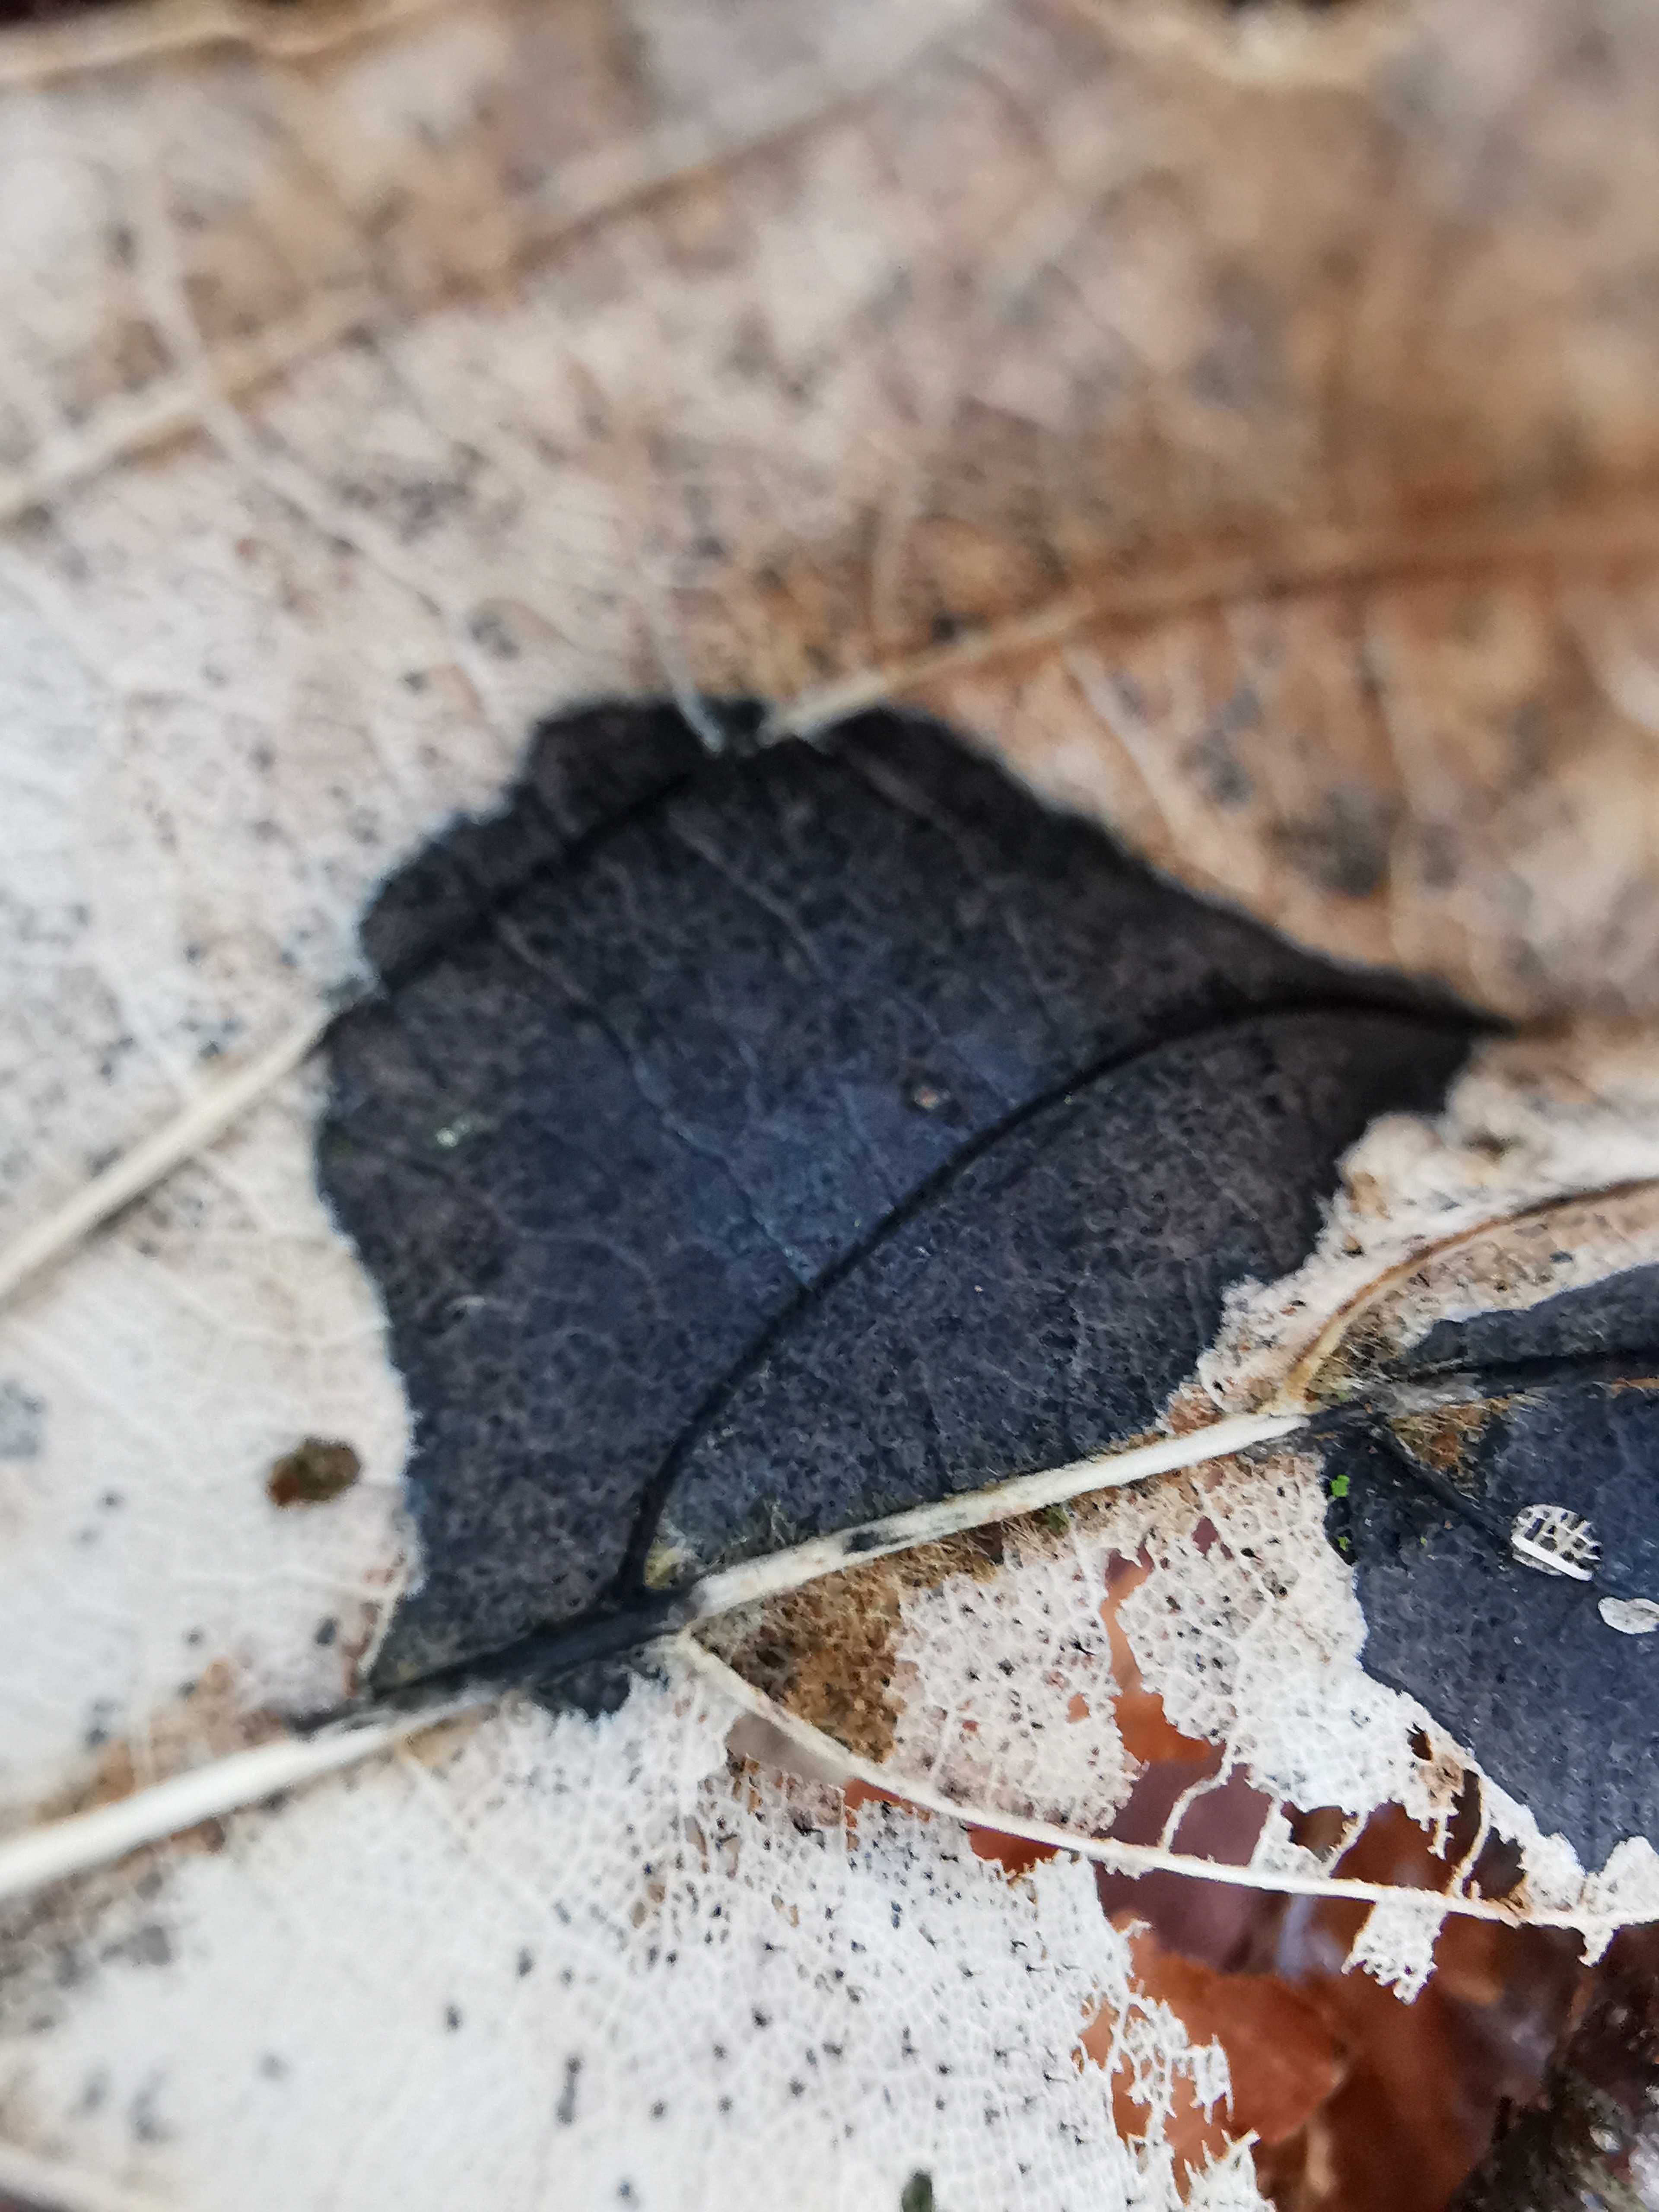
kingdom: Fungi
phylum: Ascomycota
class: Leotiomycetes
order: Rhytismatales
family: Rhytismataceae
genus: Rhytisma
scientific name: Rhytisma acerinum
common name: ahorn-rynkeplet
